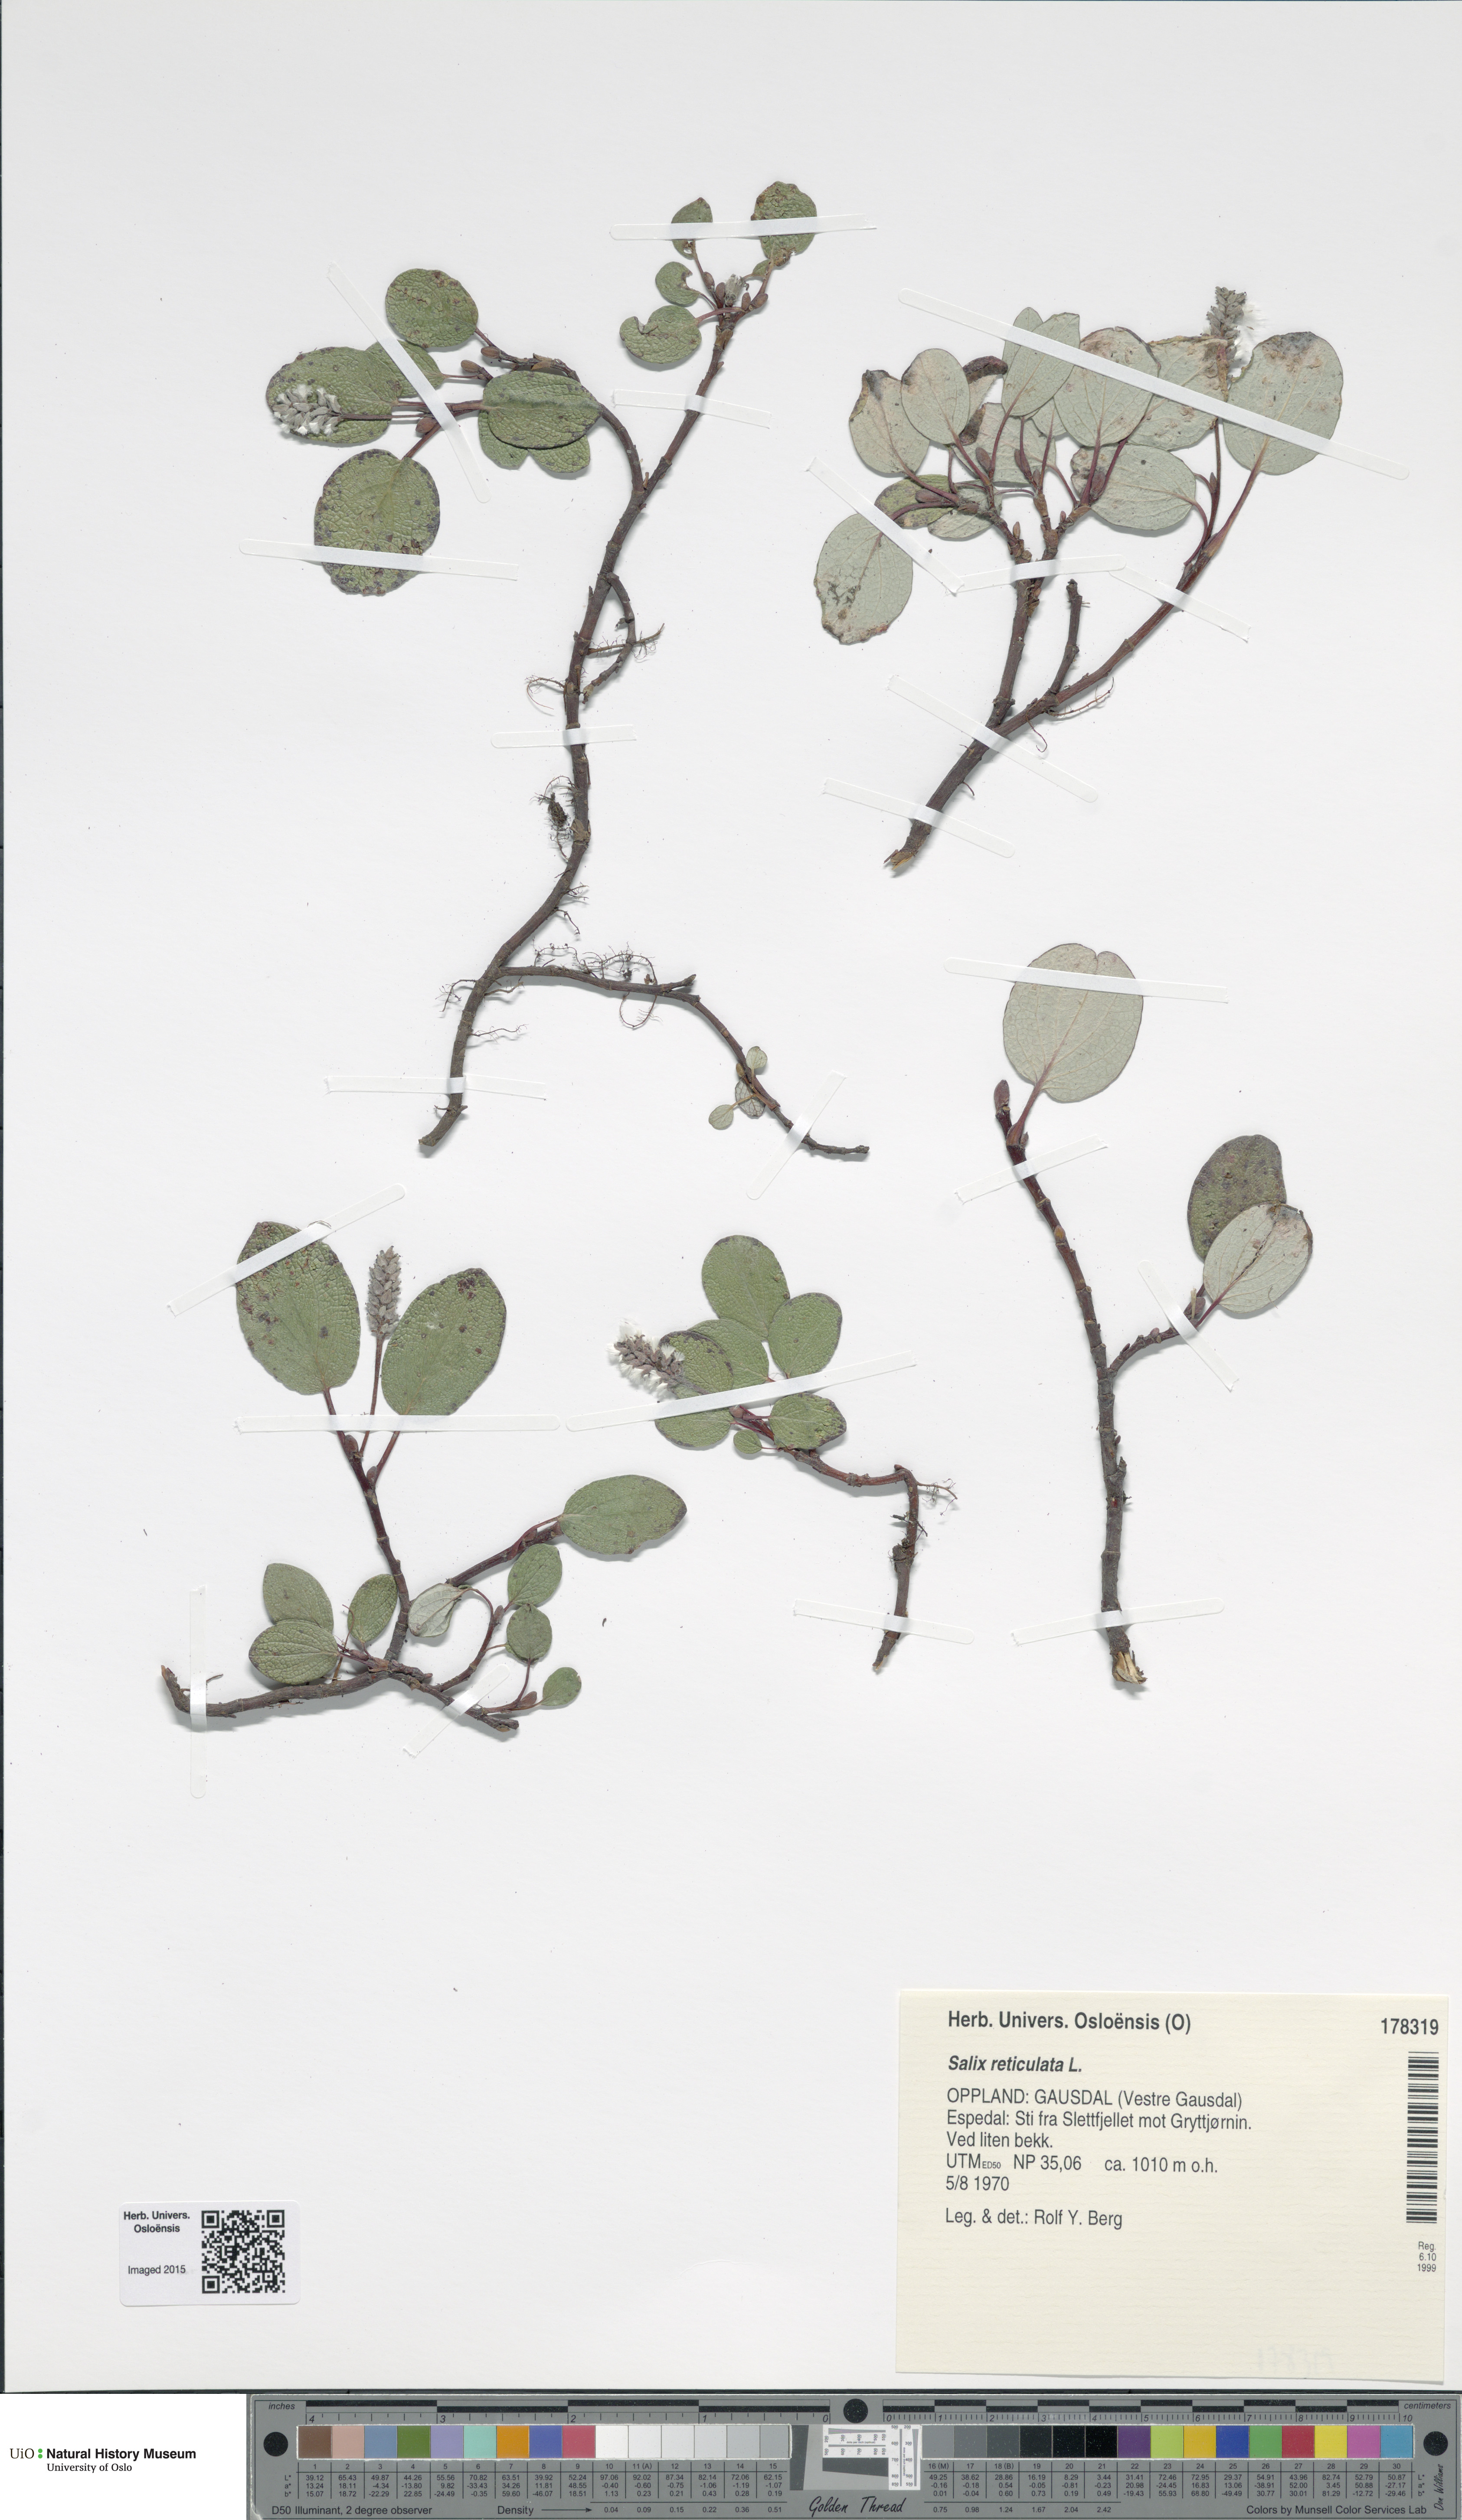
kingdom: Plantae
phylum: Tracheophyta
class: Magnoliopsida
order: Malpighiales
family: Salicaceae
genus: Salix
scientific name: Salix reticulata
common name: Net-leaved willow
